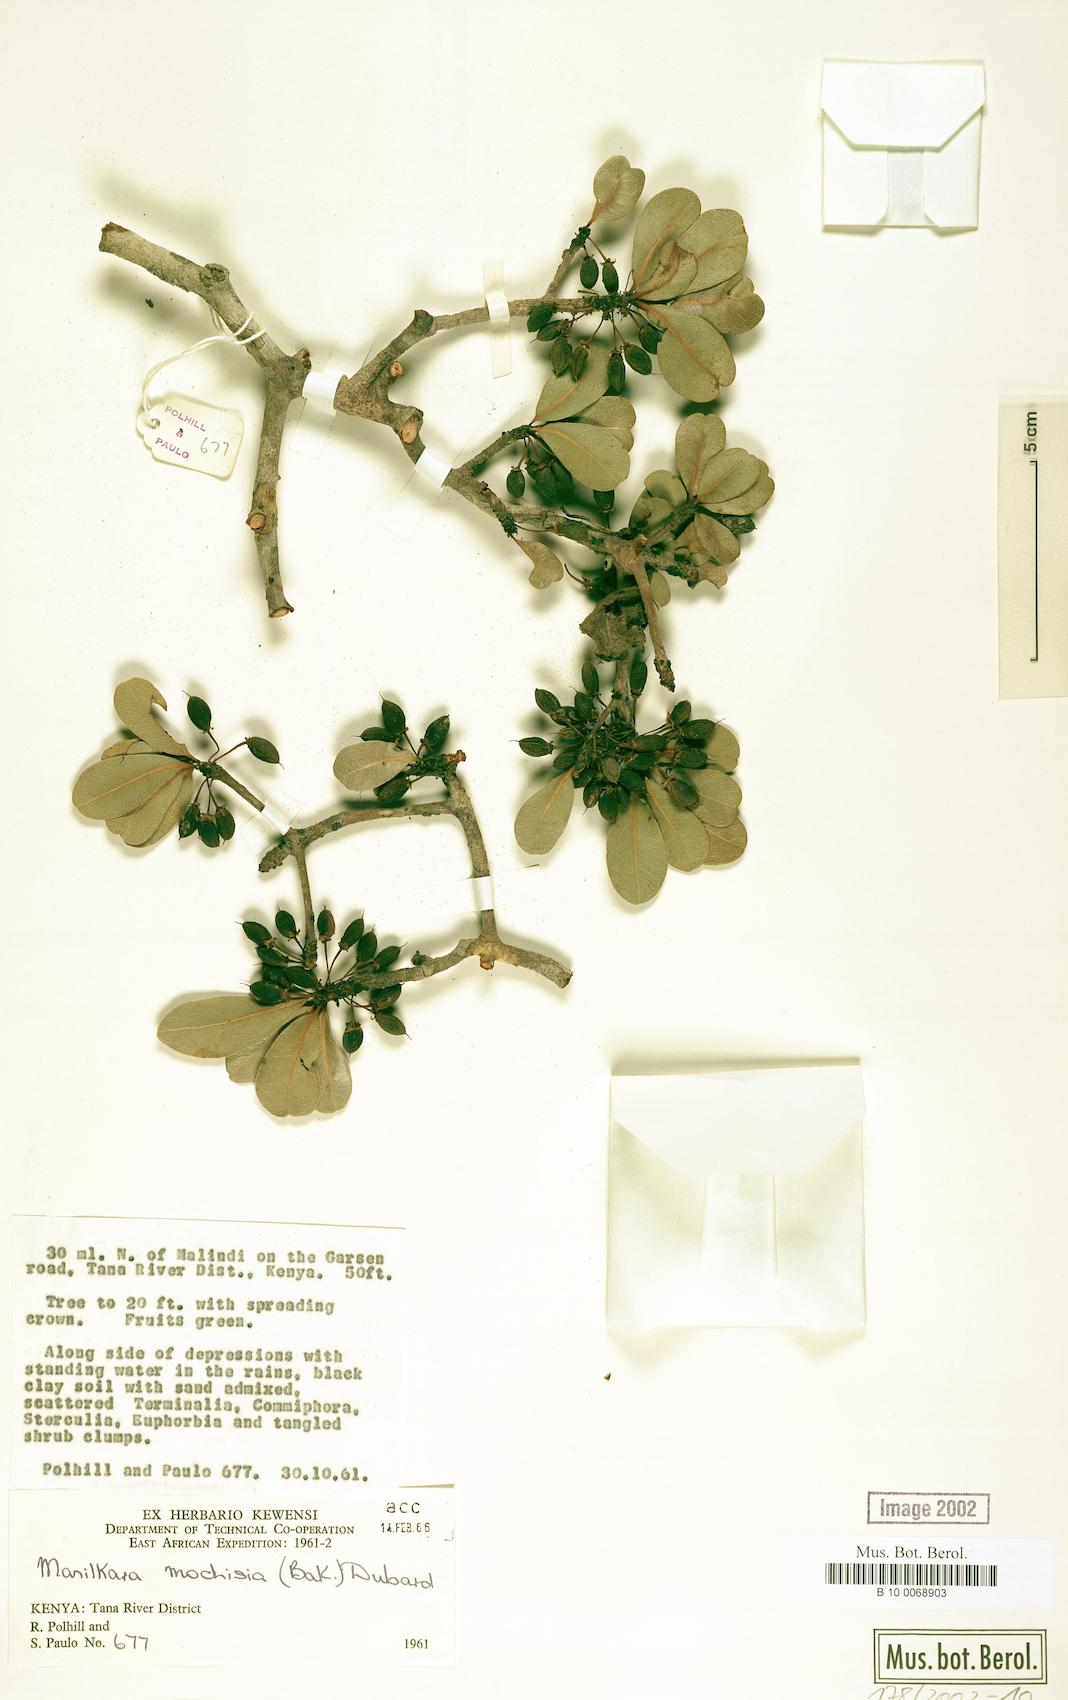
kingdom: Plantae
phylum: Tracheophyta
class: Magnoliopsida
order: Ericales
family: Sapotaceae
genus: Manilkara
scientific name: Manilkara mochisia
